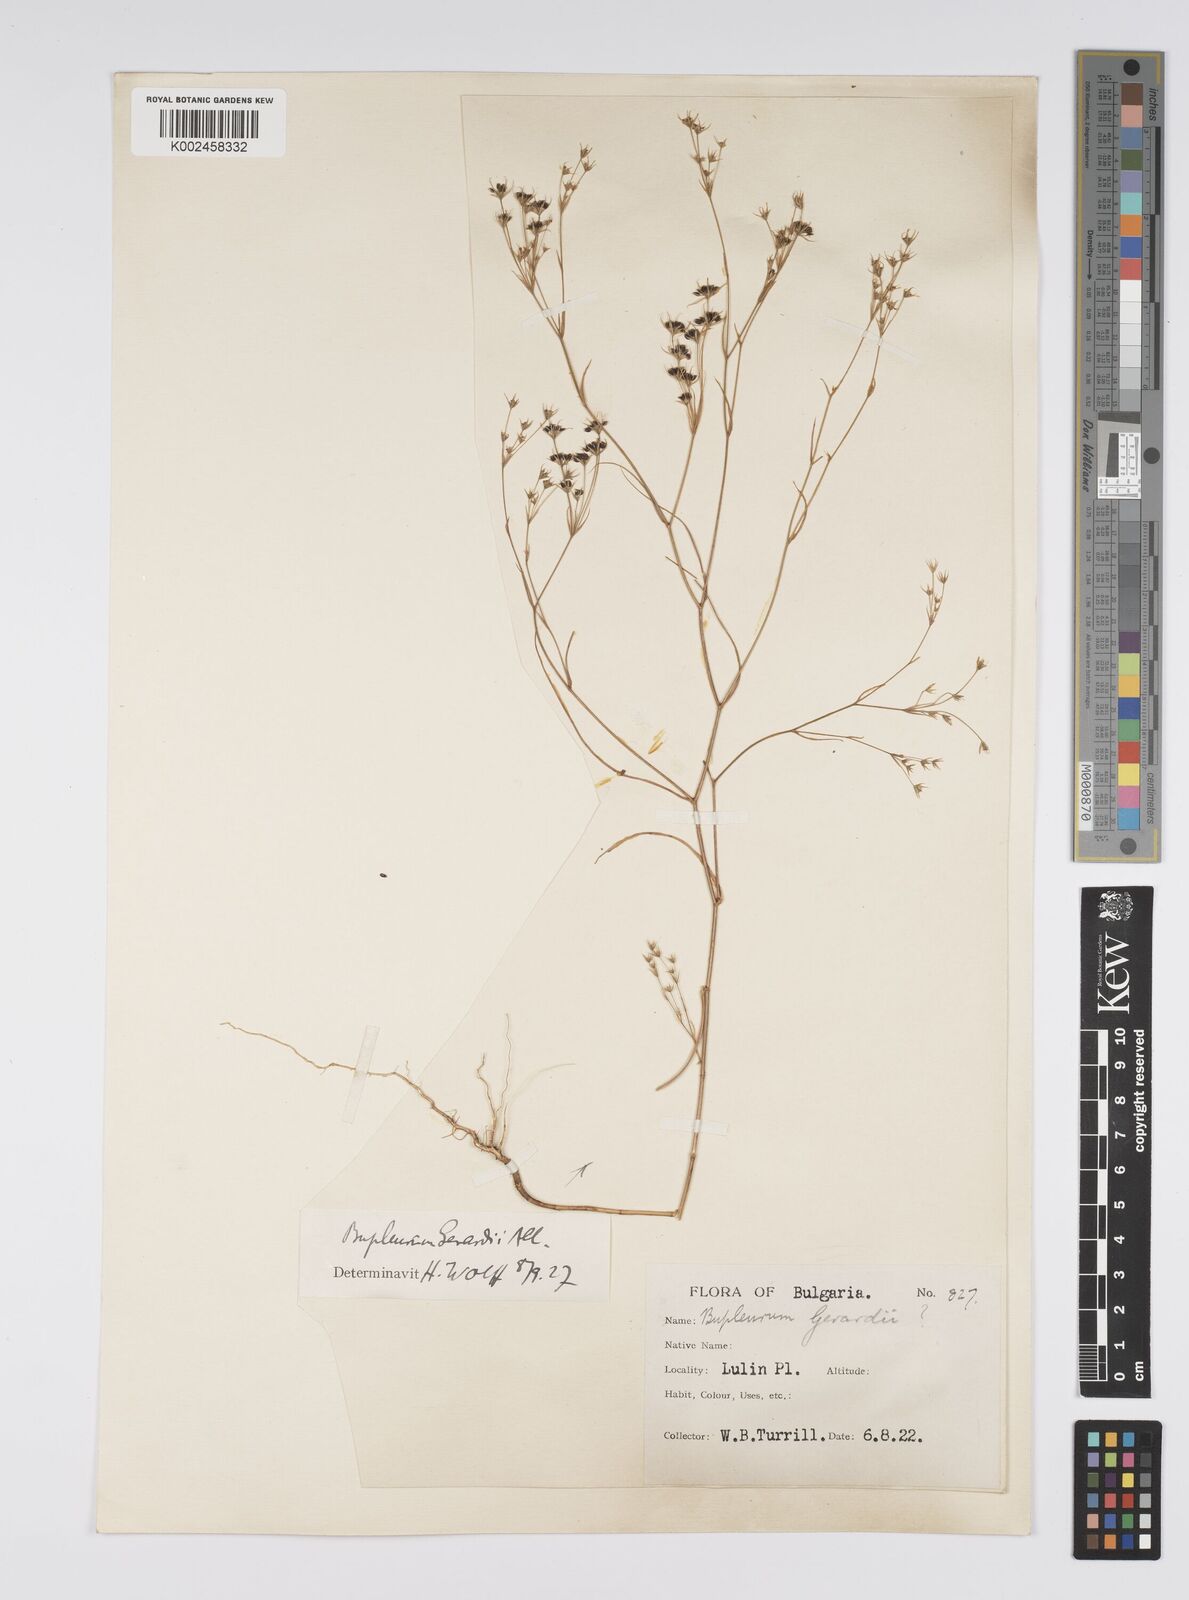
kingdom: Plantae
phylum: Tracheophyta
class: Magnoliopsida
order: Apiales
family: Apiaceae
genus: Bupleurum
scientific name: Bupleurum gerardi
